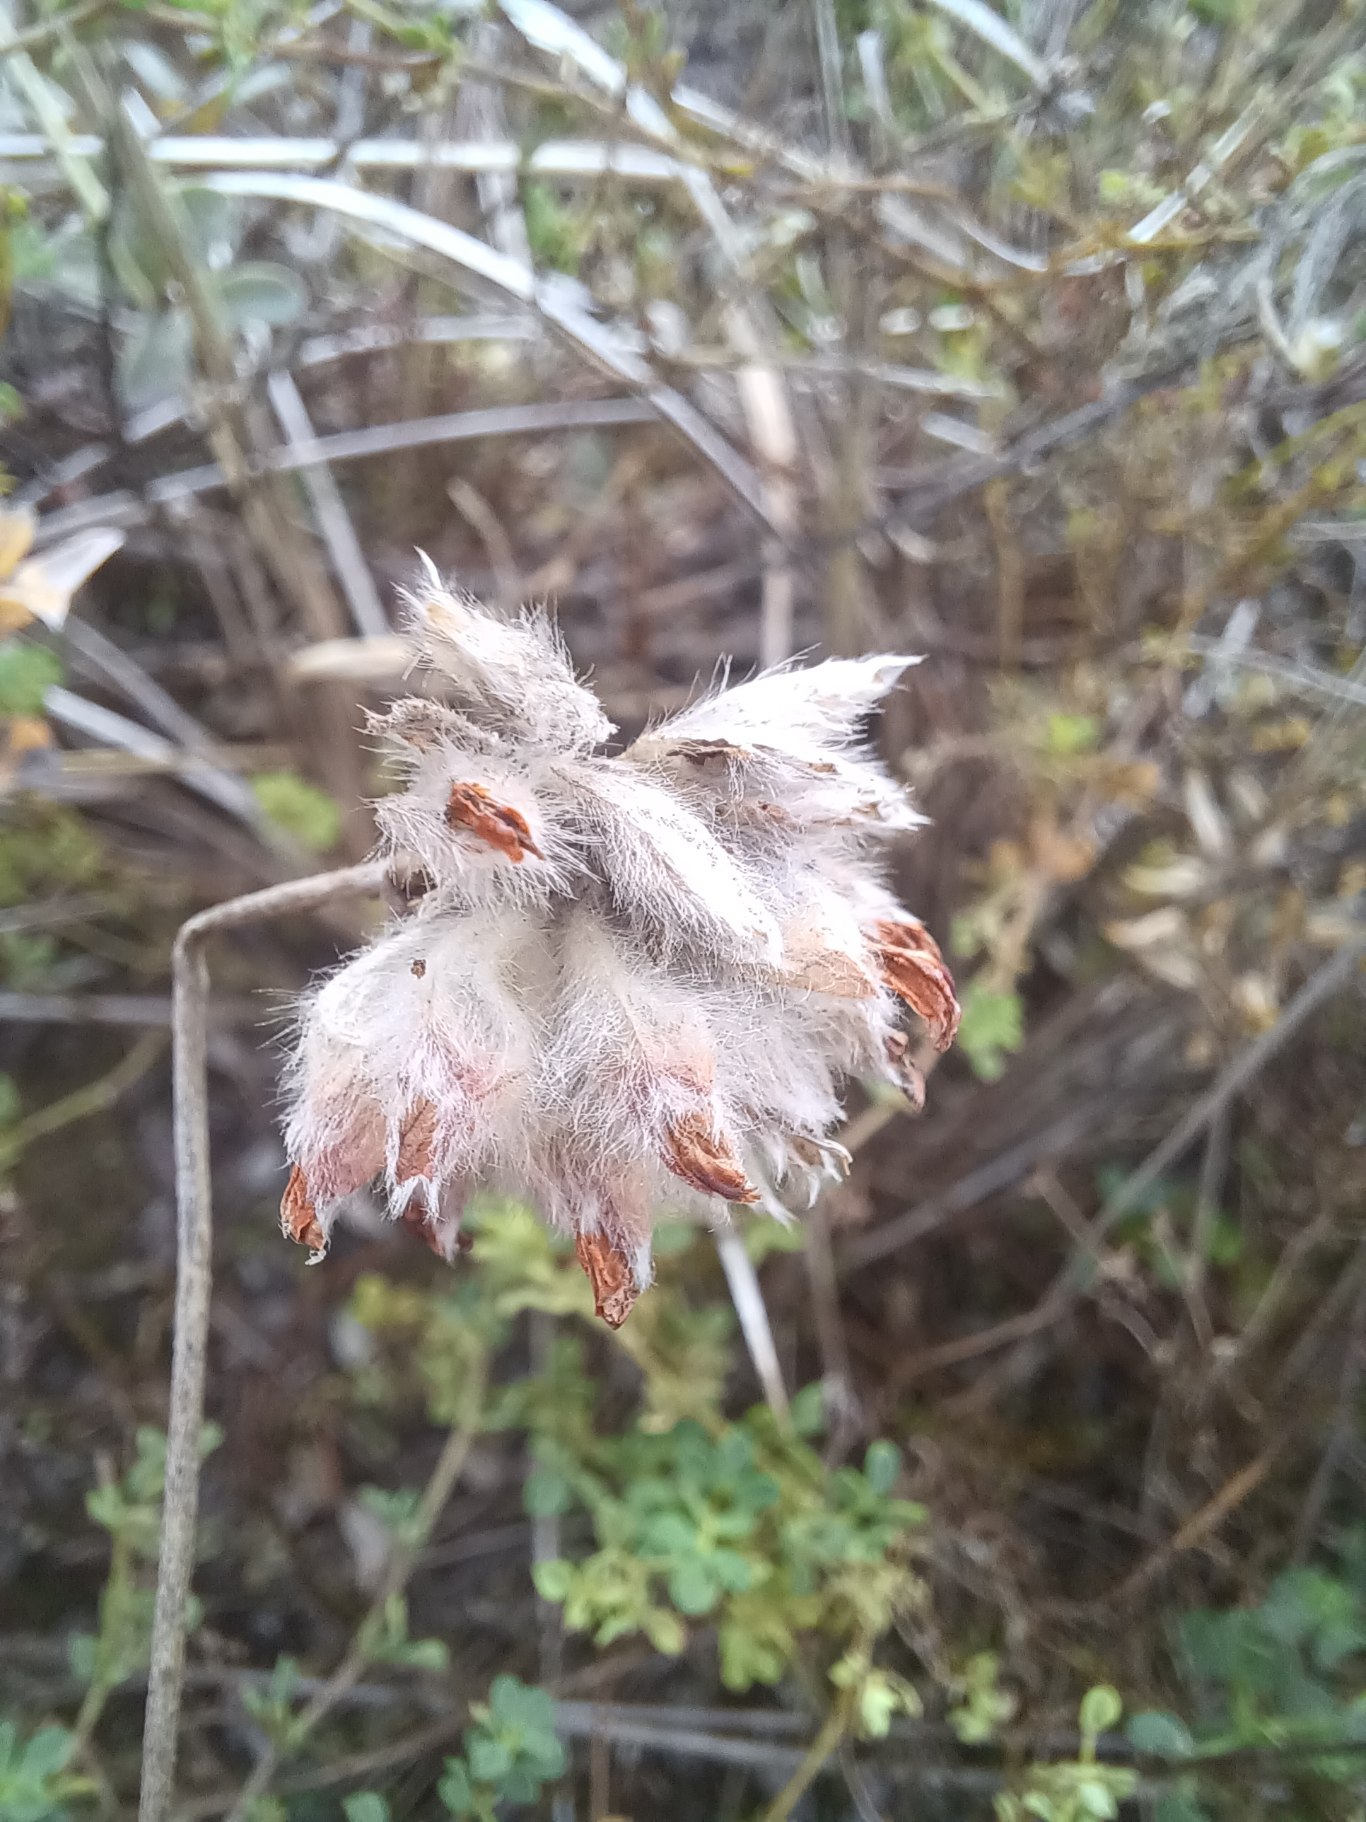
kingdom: Plantae
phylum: Tracheophyta
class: Magnoliopsida
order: Fabales
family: Fabaceae
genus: Anthyllis
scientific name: Anthyllis vulneraria
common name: Rundbælg
